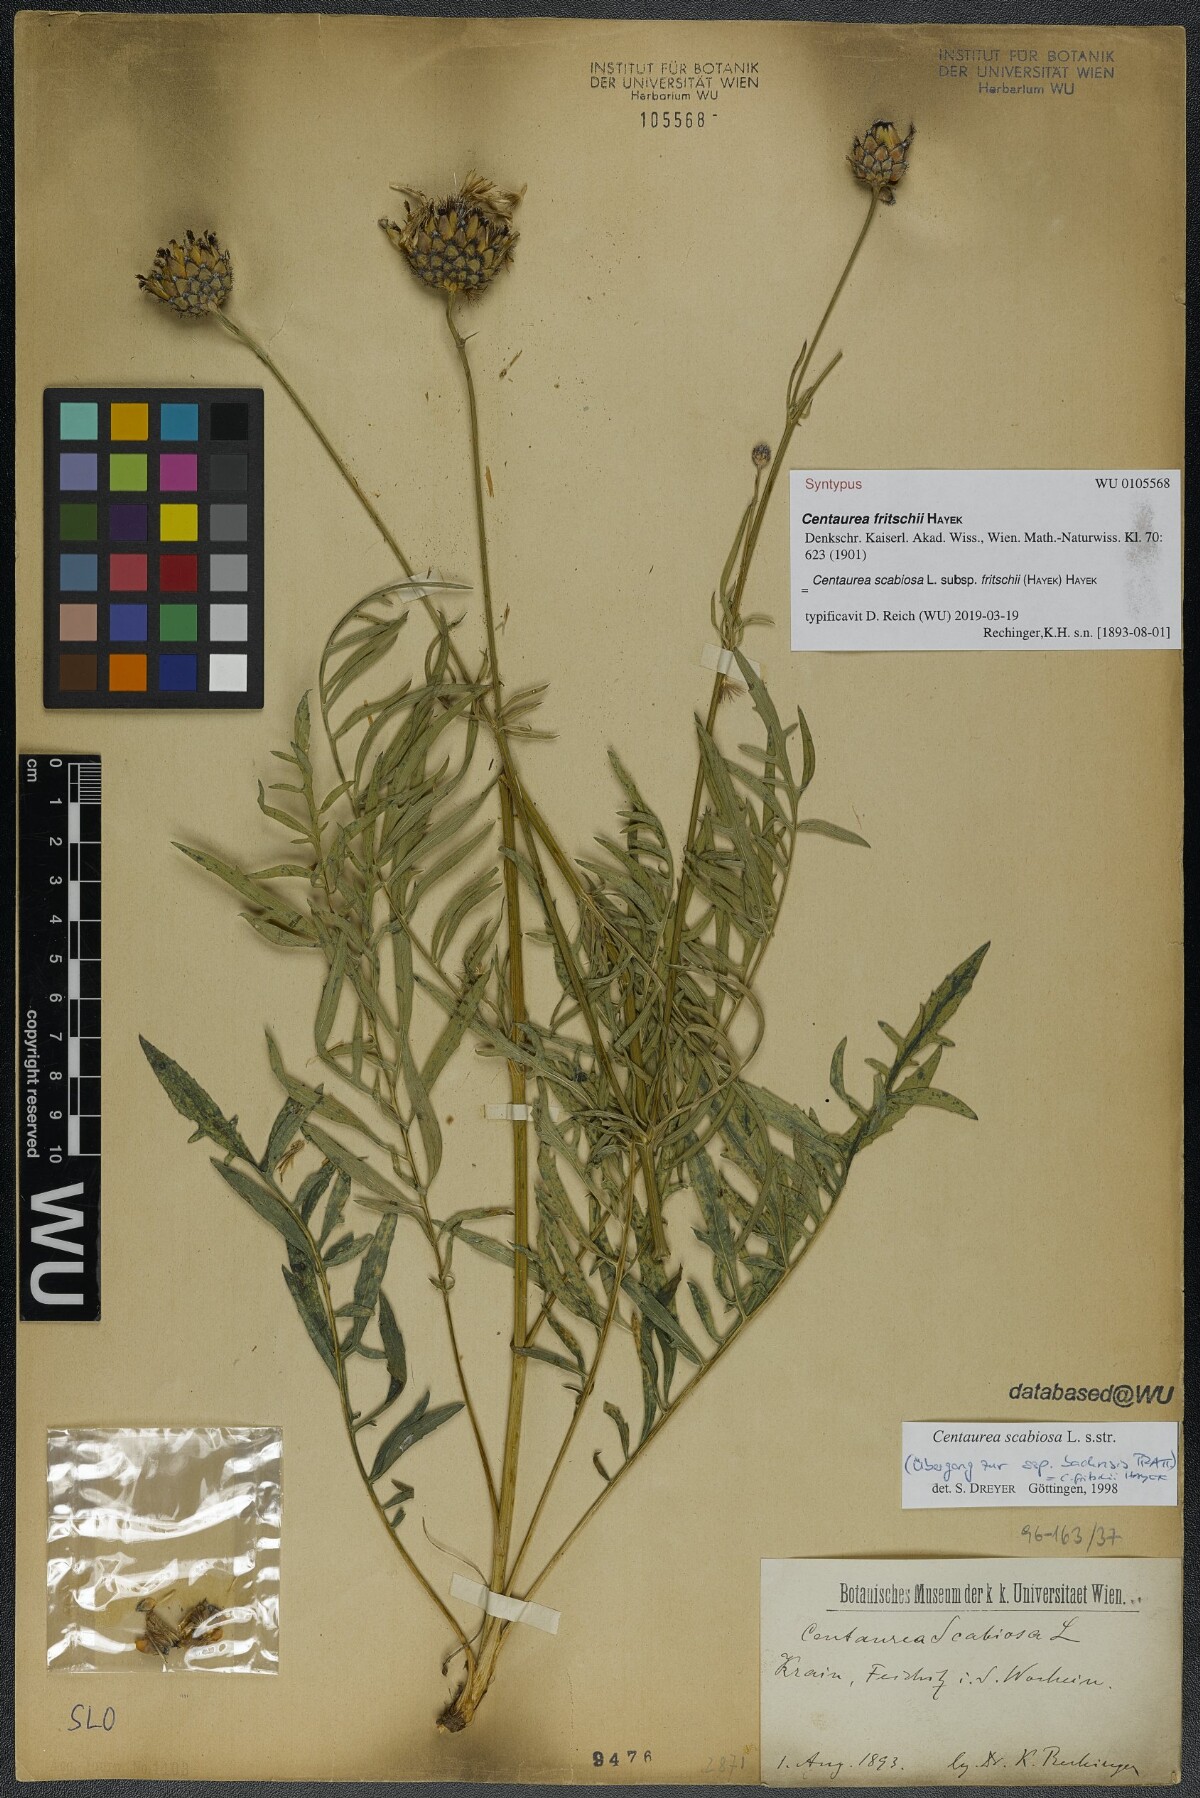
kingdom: Plantae
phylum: Tracheophyta
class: Magnoliopsida
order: Asterales
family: Asteraceae
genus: Centaurea
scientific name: Centaurea scabiosa
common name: Greater knapweed
